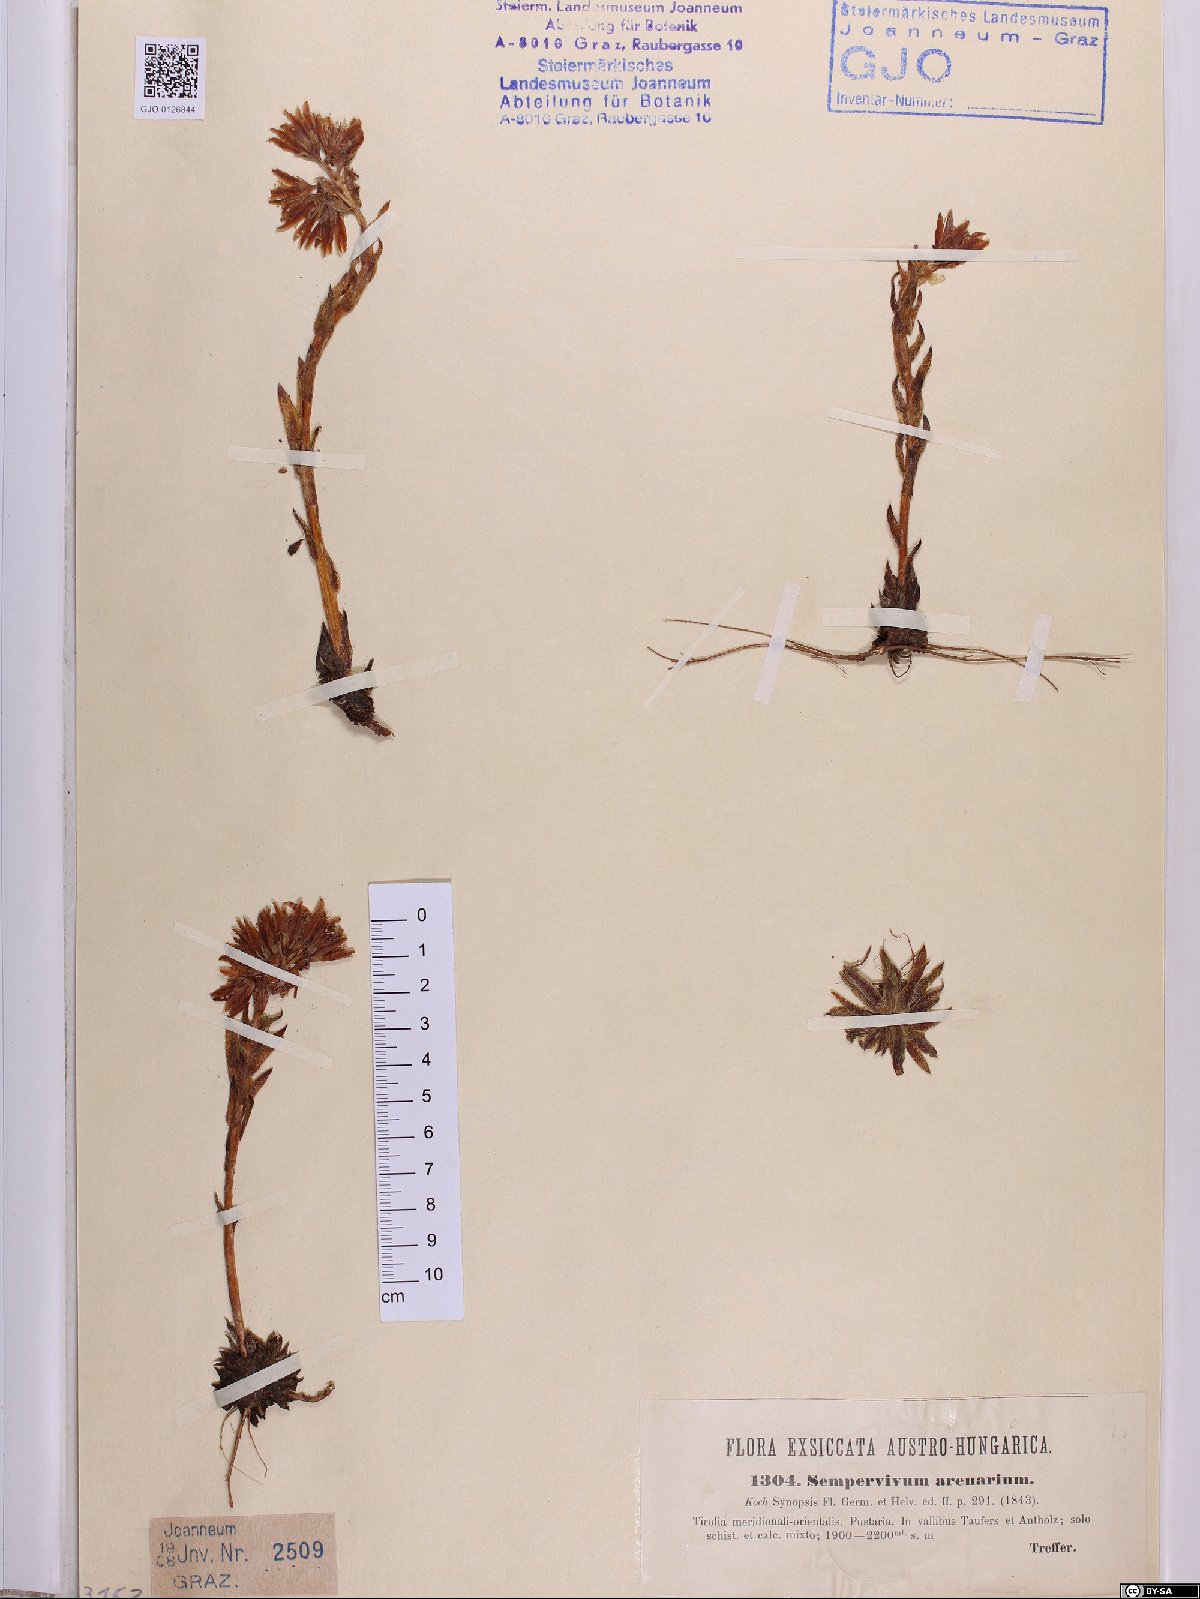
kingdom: Plantae
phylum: Tracheophyta
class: Magnoliopsida
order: Saxifragales
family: Crassulaceae
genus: Sempervivum
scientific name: Sempervivum globiferum
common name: Rolling hen-and-chicks
